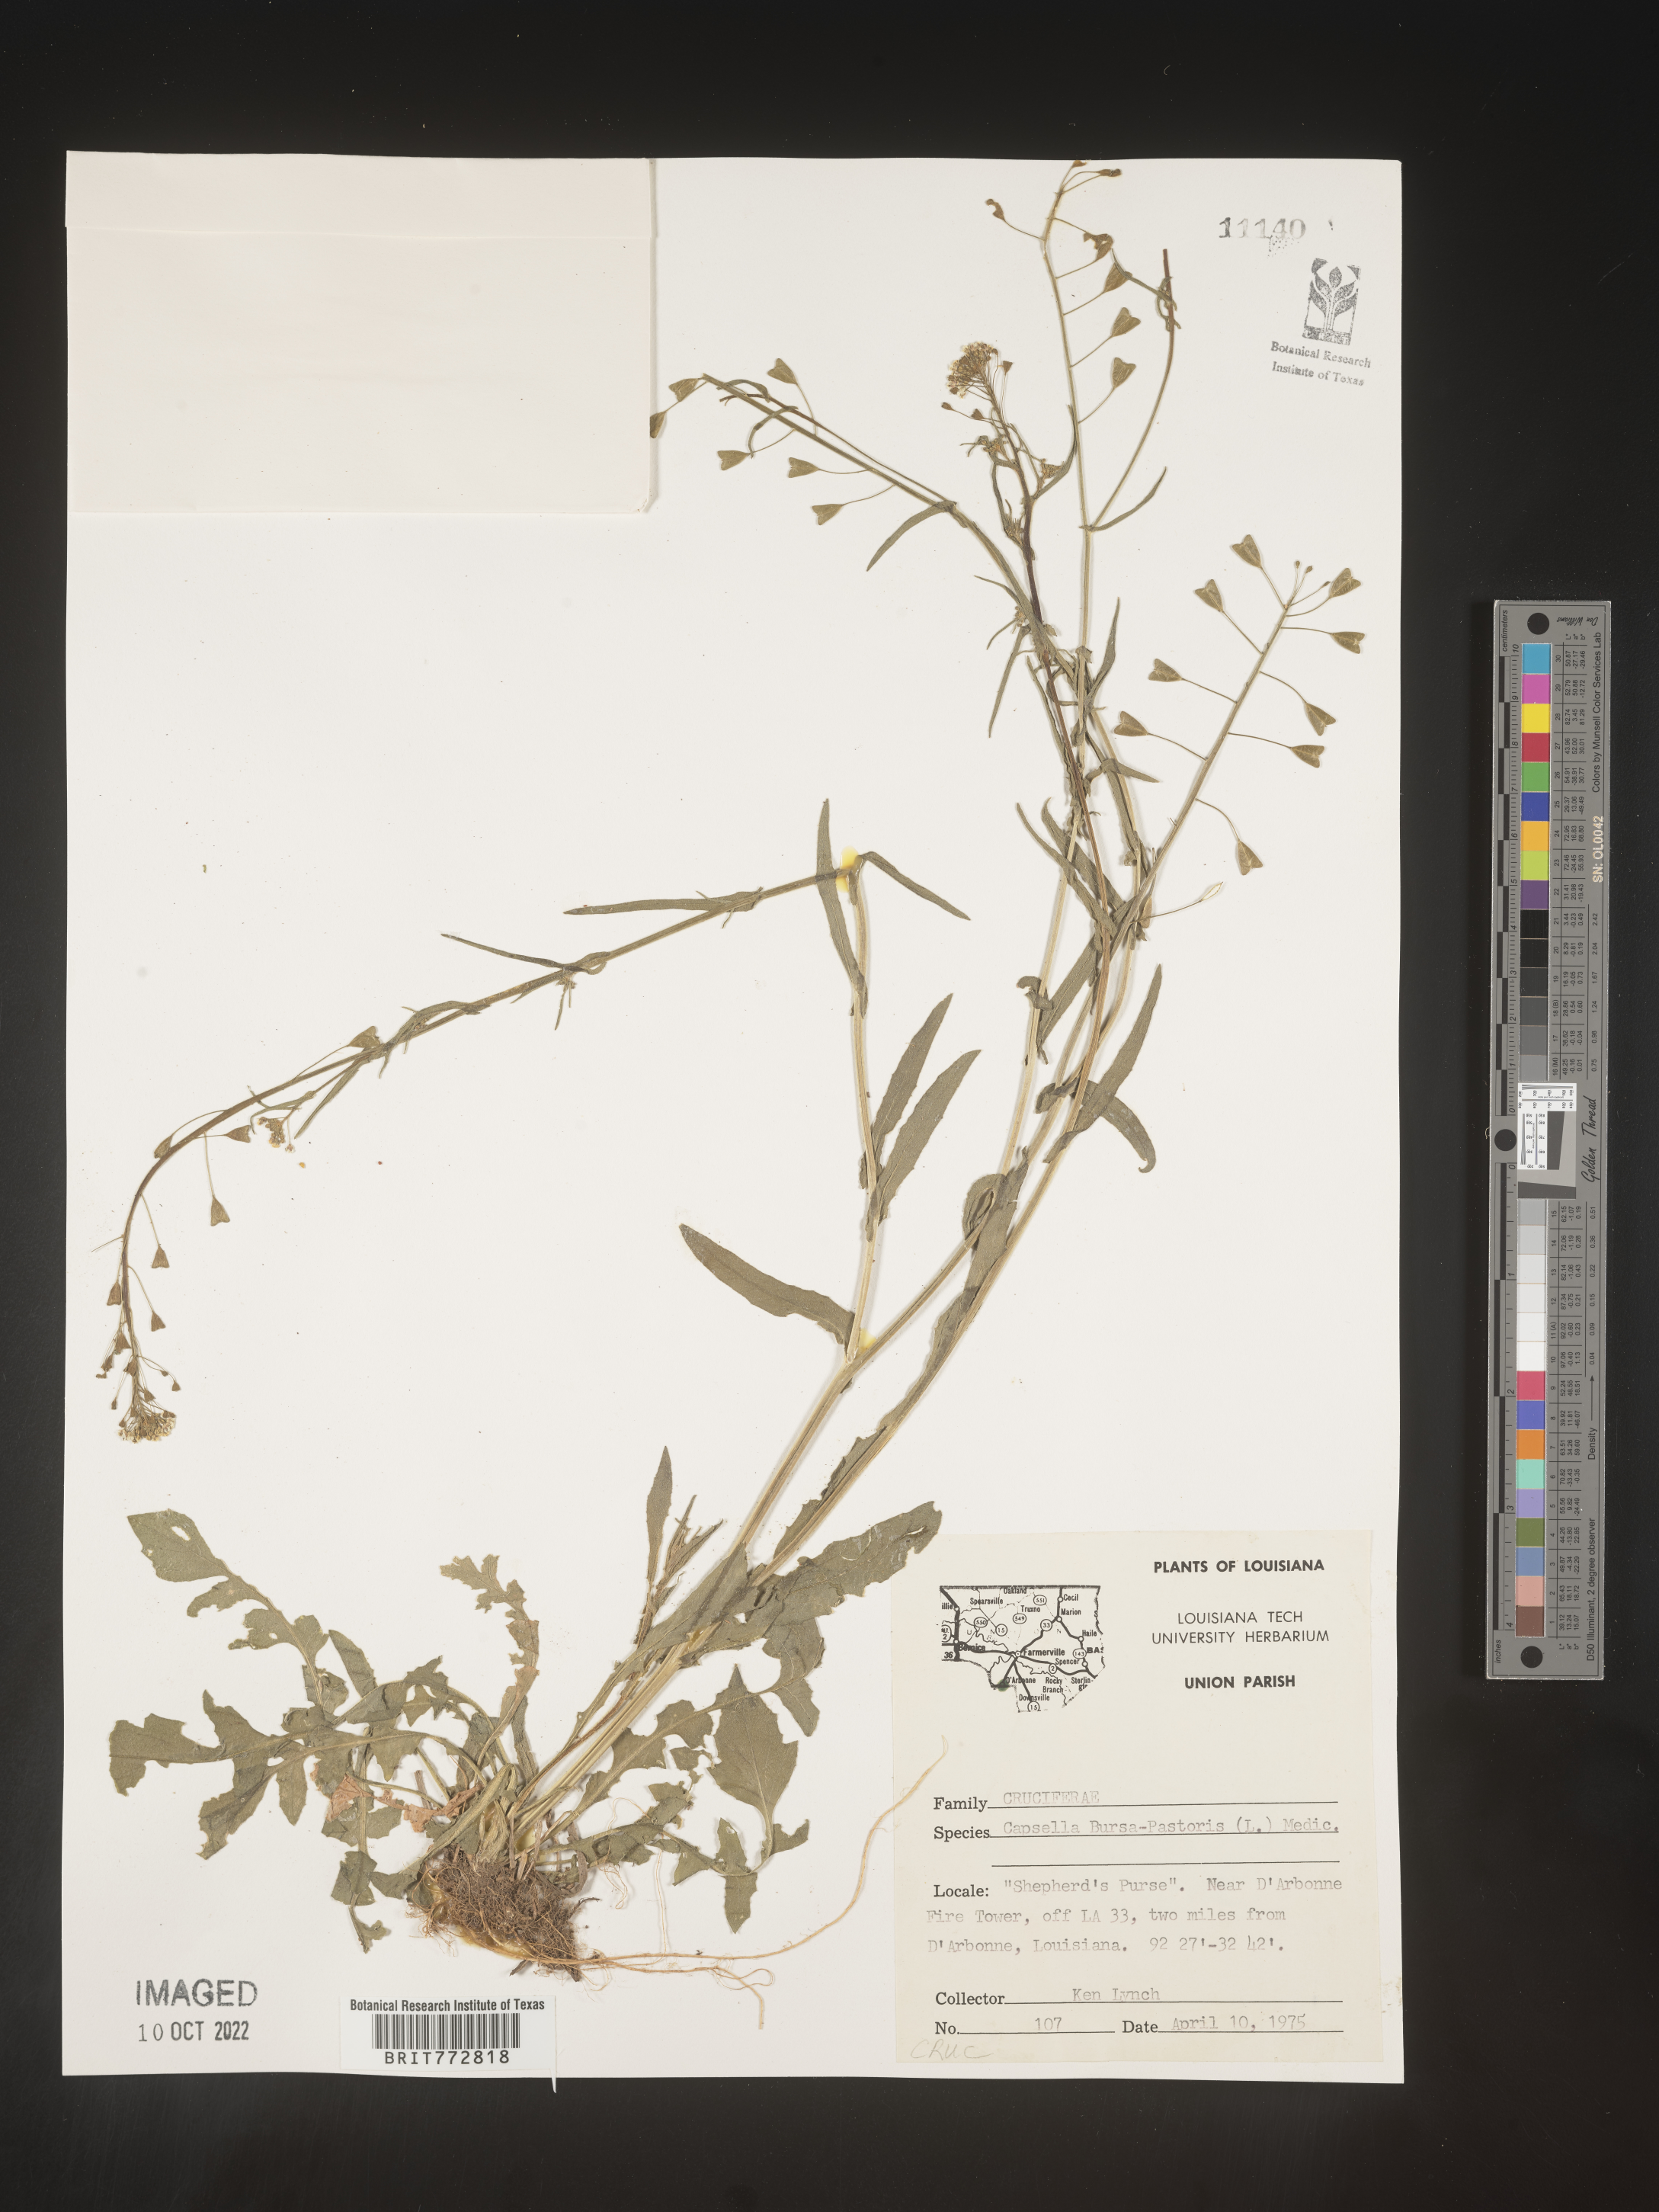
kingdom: Plantae
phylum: Tracheophyta
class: Magnoliopsida
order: Brassicales
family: Brassicaceae
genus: Capsella
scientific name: Capsella bursa-pastoris
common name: Shepherd's purse
